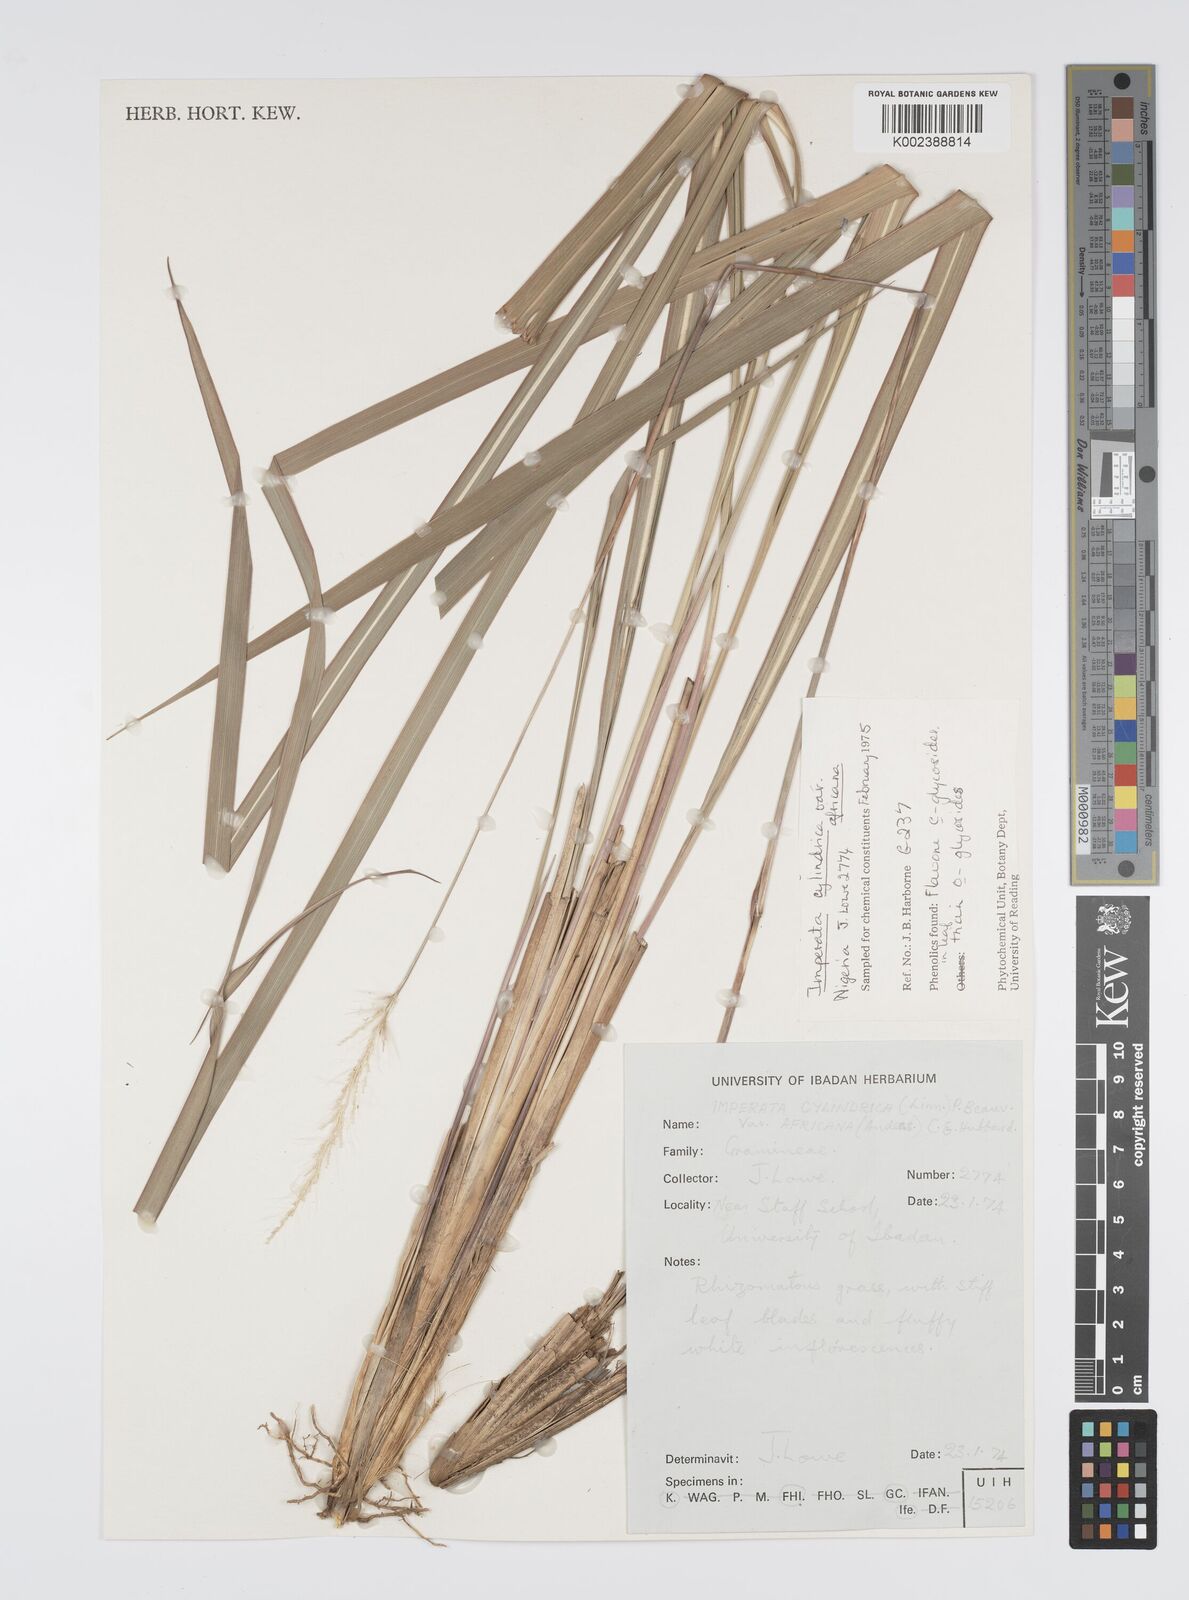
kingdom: Plantae
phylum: Tracheophyta
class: Liliopsida
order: Poales
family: Poaceae
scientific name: Poaceae
